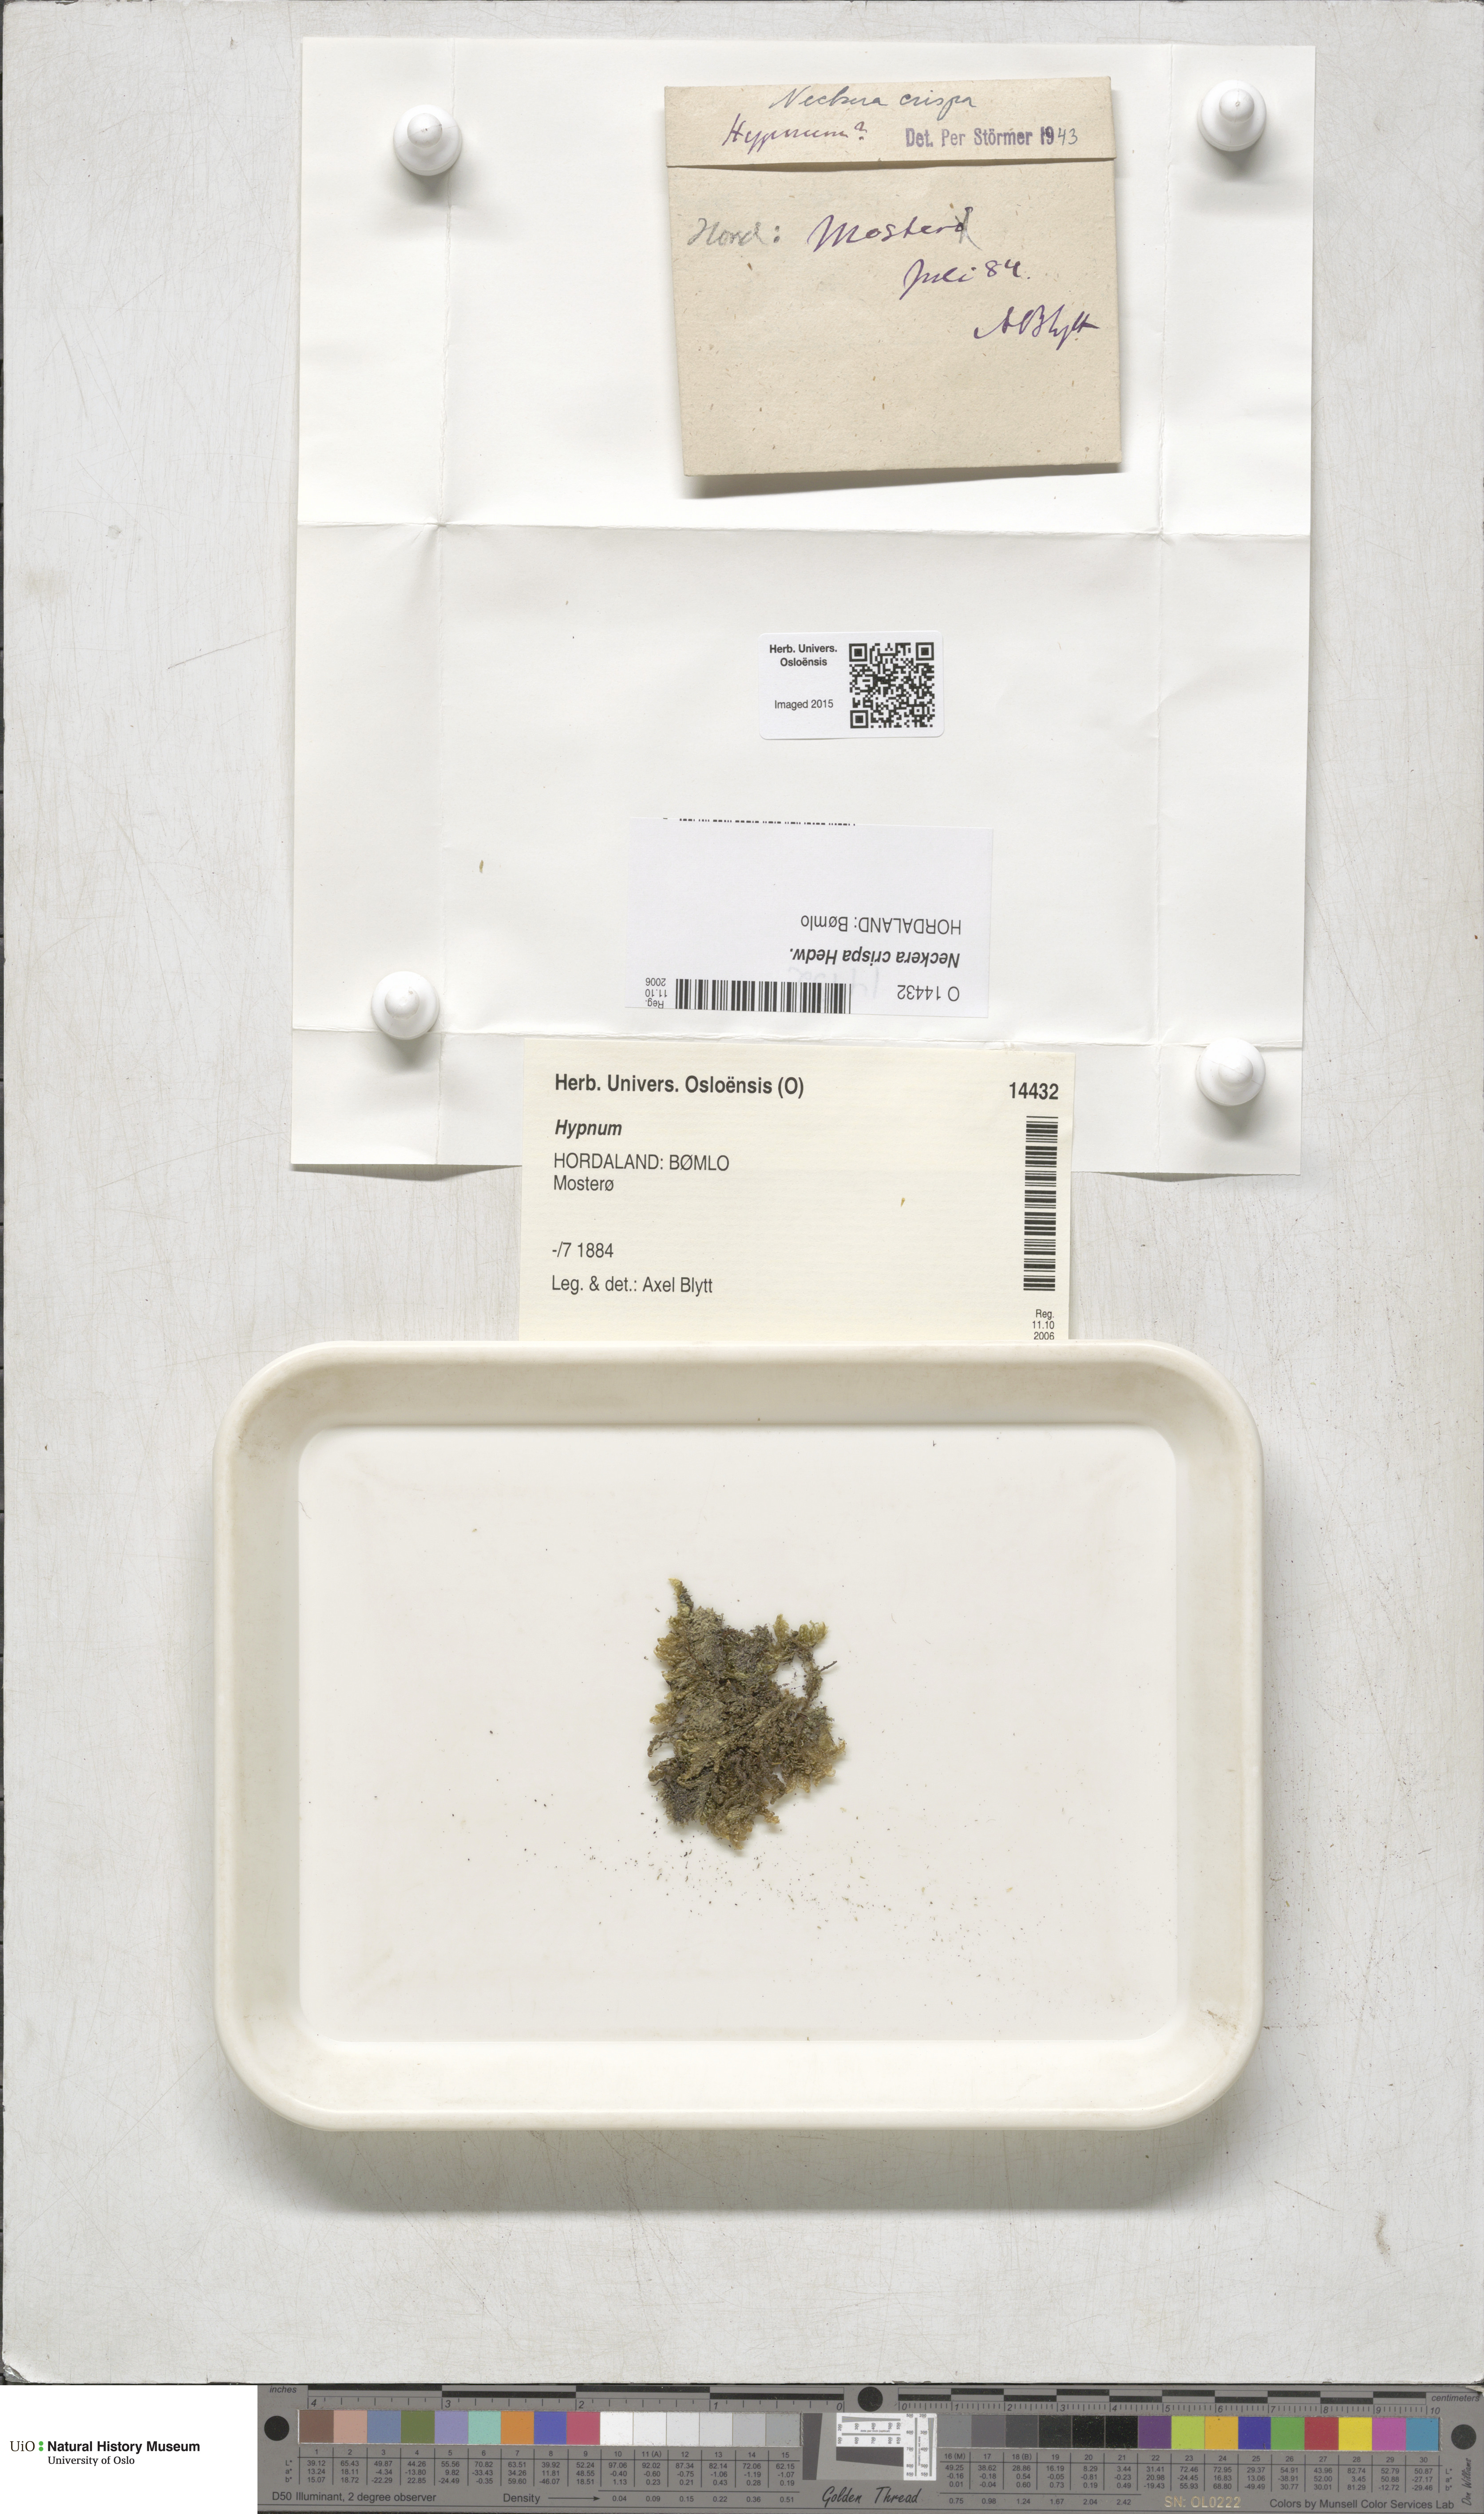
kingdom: Plantae
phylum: Bryophyta
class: Bryopsida
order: Hypnales
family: Neckeraceae
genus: Exsertotheca
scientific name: Exsertotheca crispa
